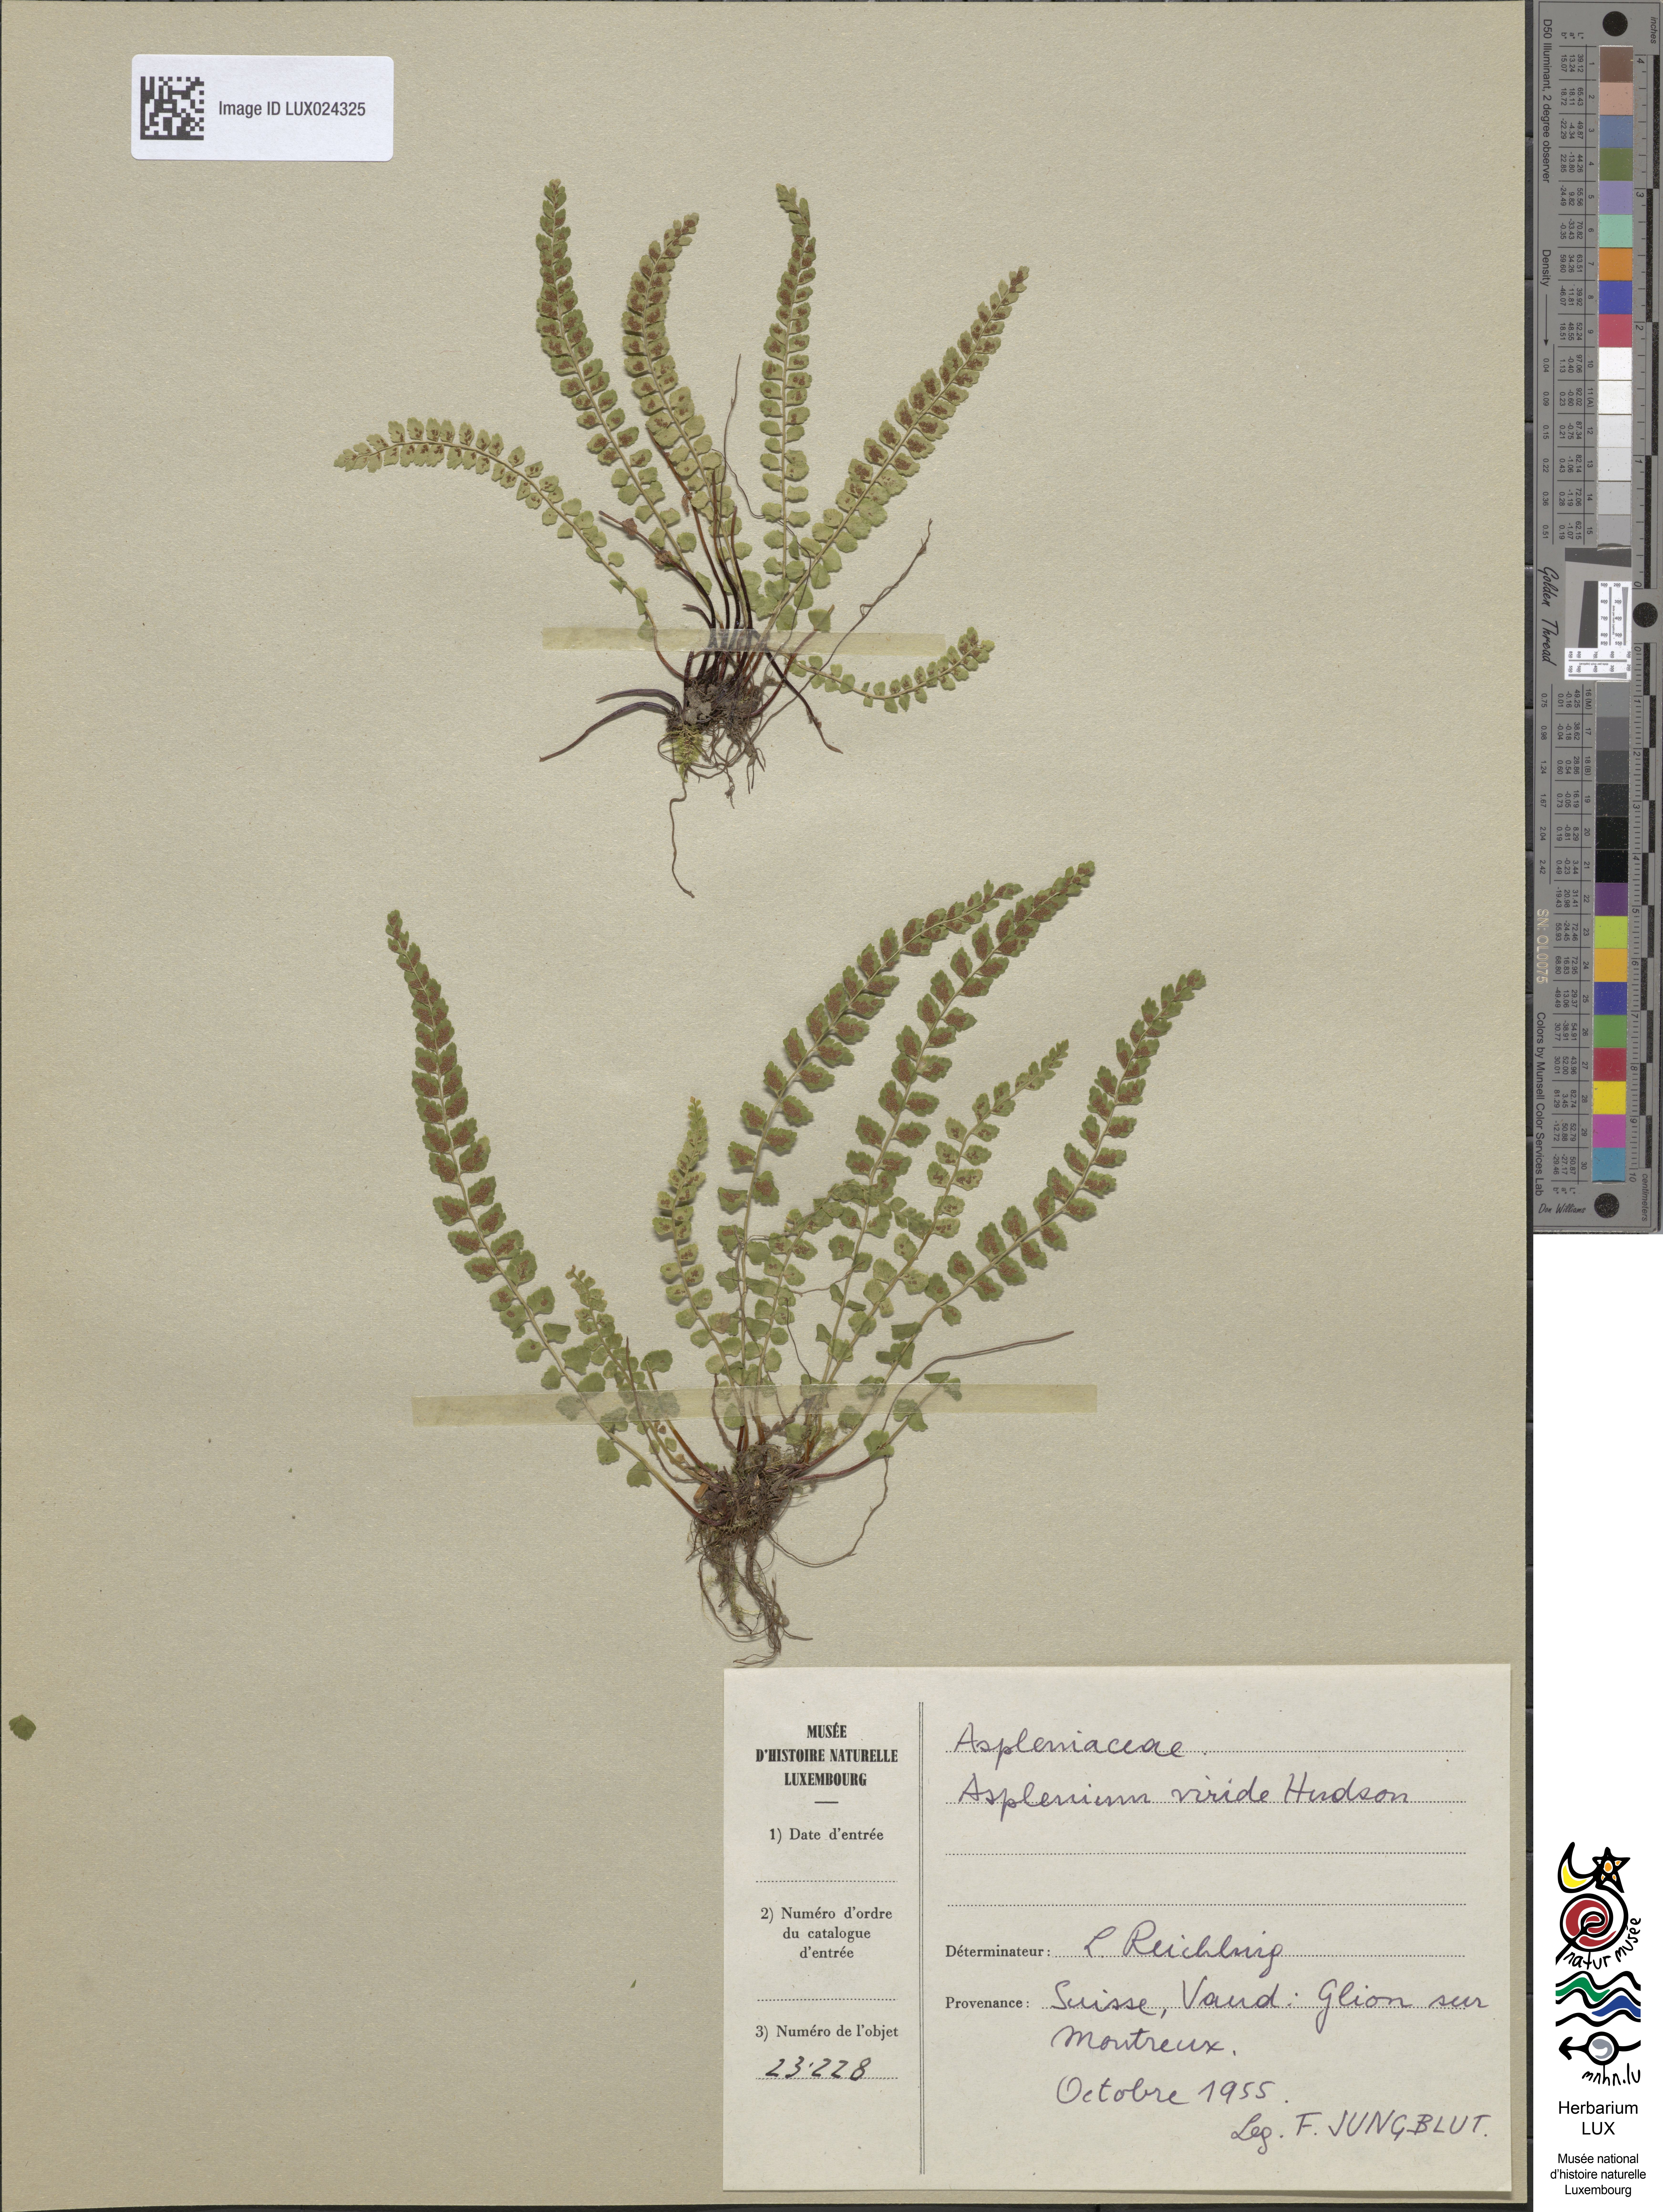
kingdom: Plantae
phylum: Tracheophyta
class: Polypodiopsida
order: Polypodiales
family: Aspleniaceae
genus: Asplenium
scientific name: Asplenium viride
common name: Green spleenwort
